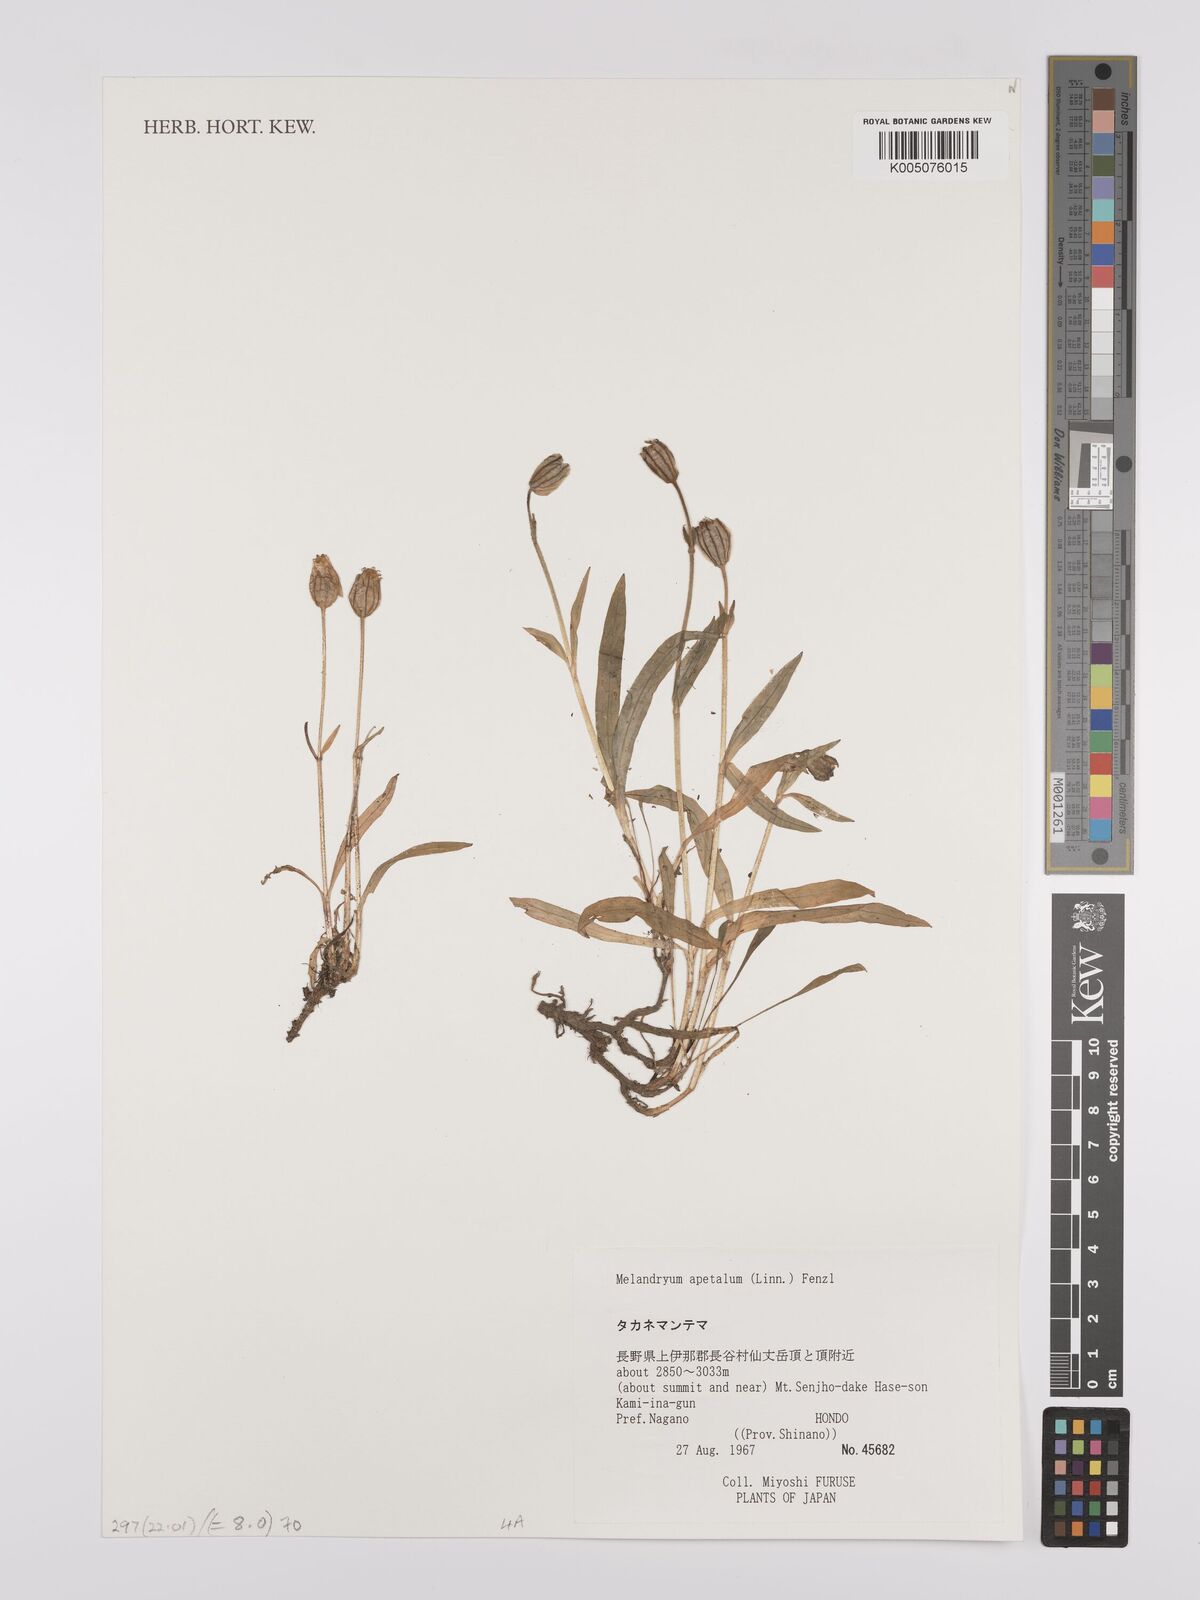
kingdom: Plantae
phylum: Tracheophyta
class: Magnoliopsida
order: Caryophyllales
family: Caryophyllaceae
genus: Silene
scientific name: Silene
